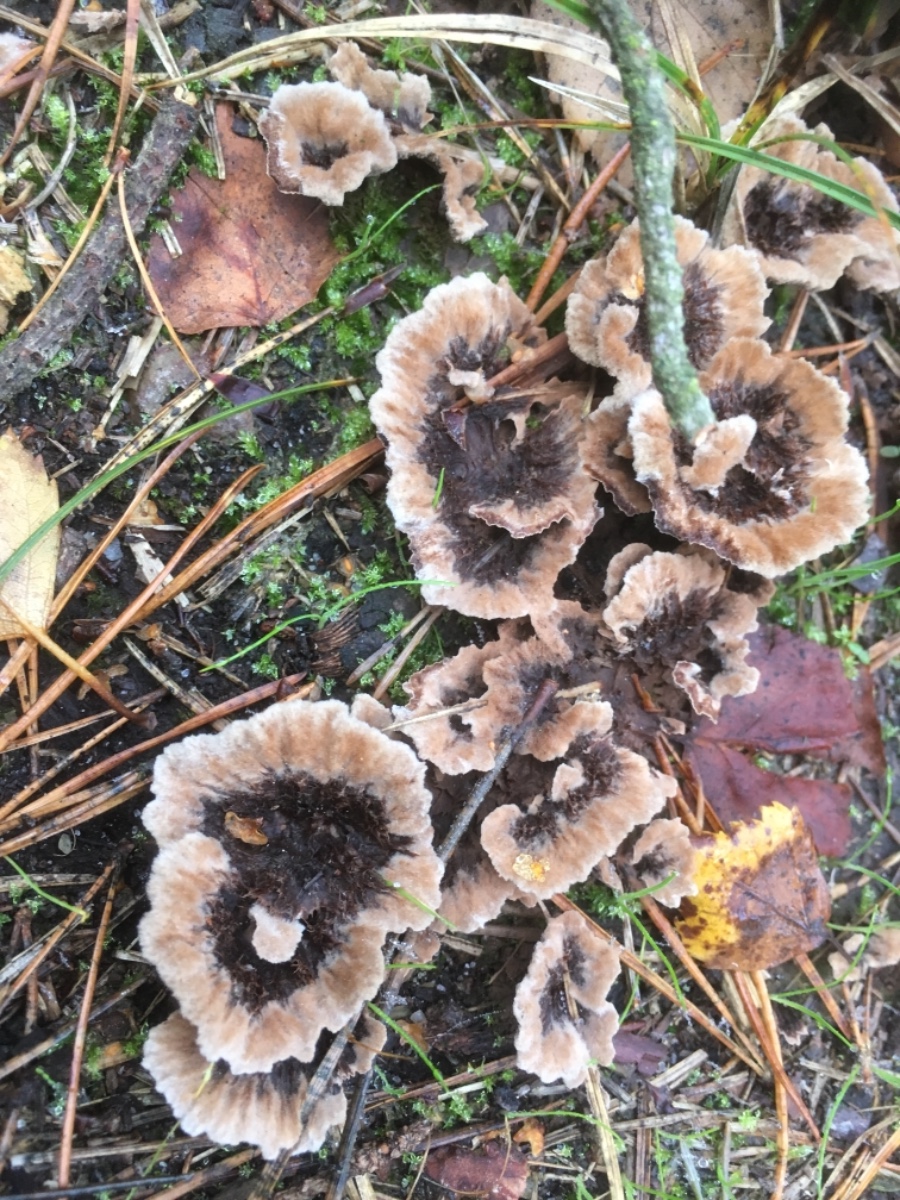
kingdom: Fungi
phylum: Basidiomycota
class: Agaricomycetes
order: Thelephorales
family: Thelephoraceae
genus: Thelephora
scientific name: Thelephora terrestris
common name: fliget frynsesvamp
